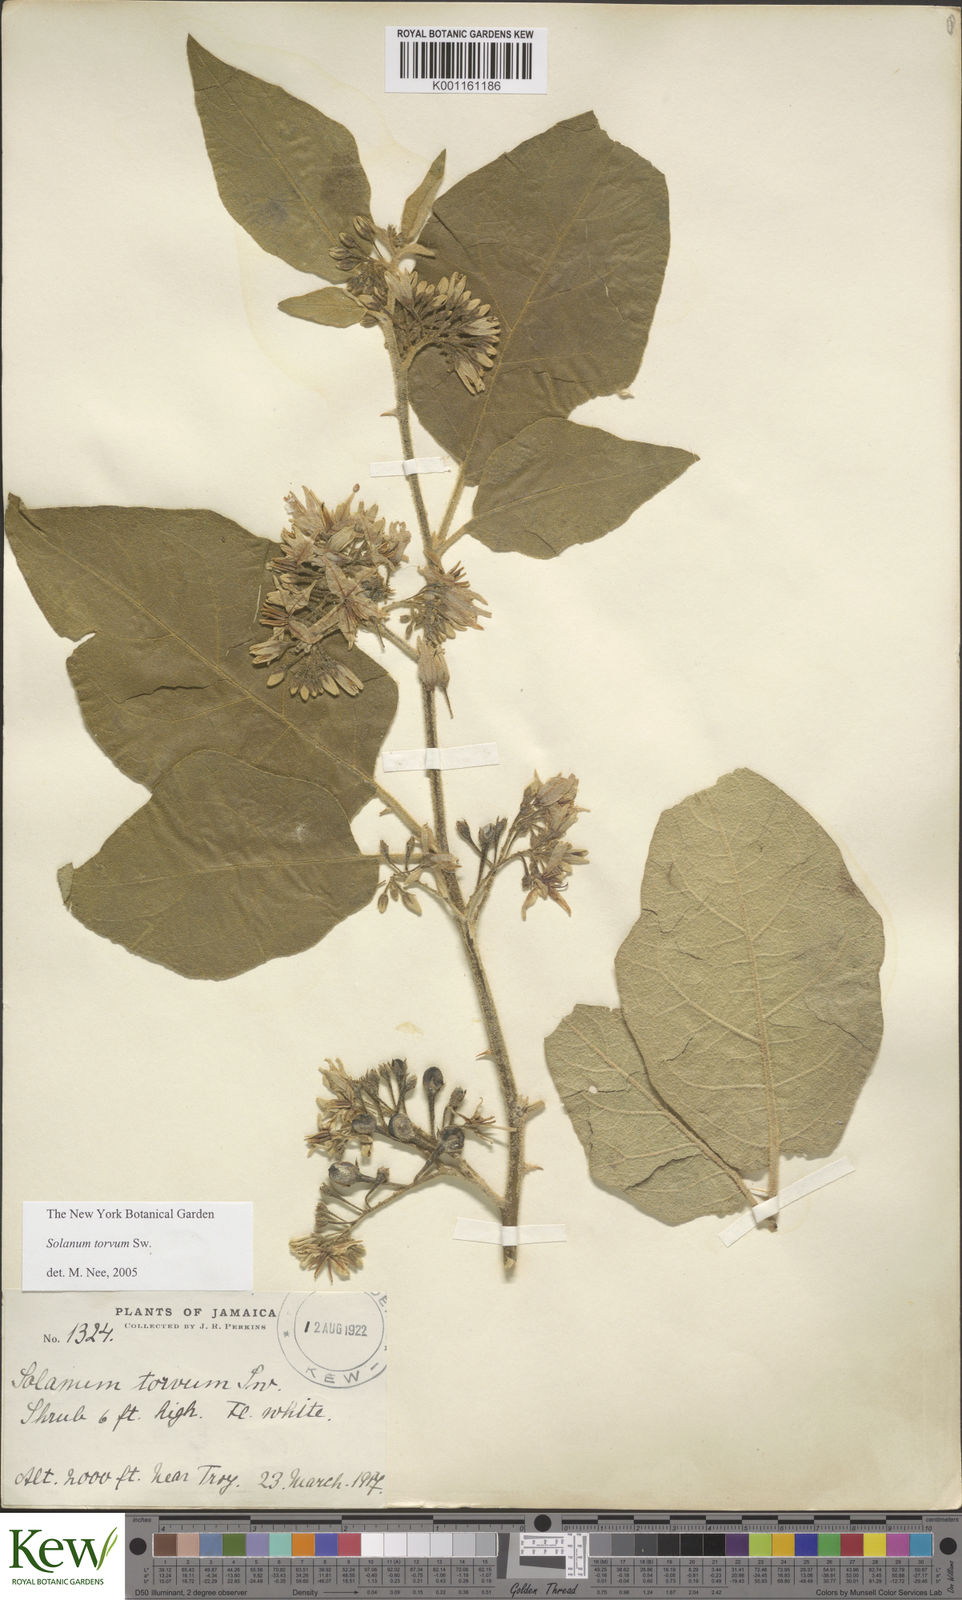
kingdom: Plantae
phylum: Tracheophyta
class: Magnoliopsida
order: Solanales
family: Solanaceae
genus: Solanum
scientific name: Solanum torvum
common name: Turkey berry
